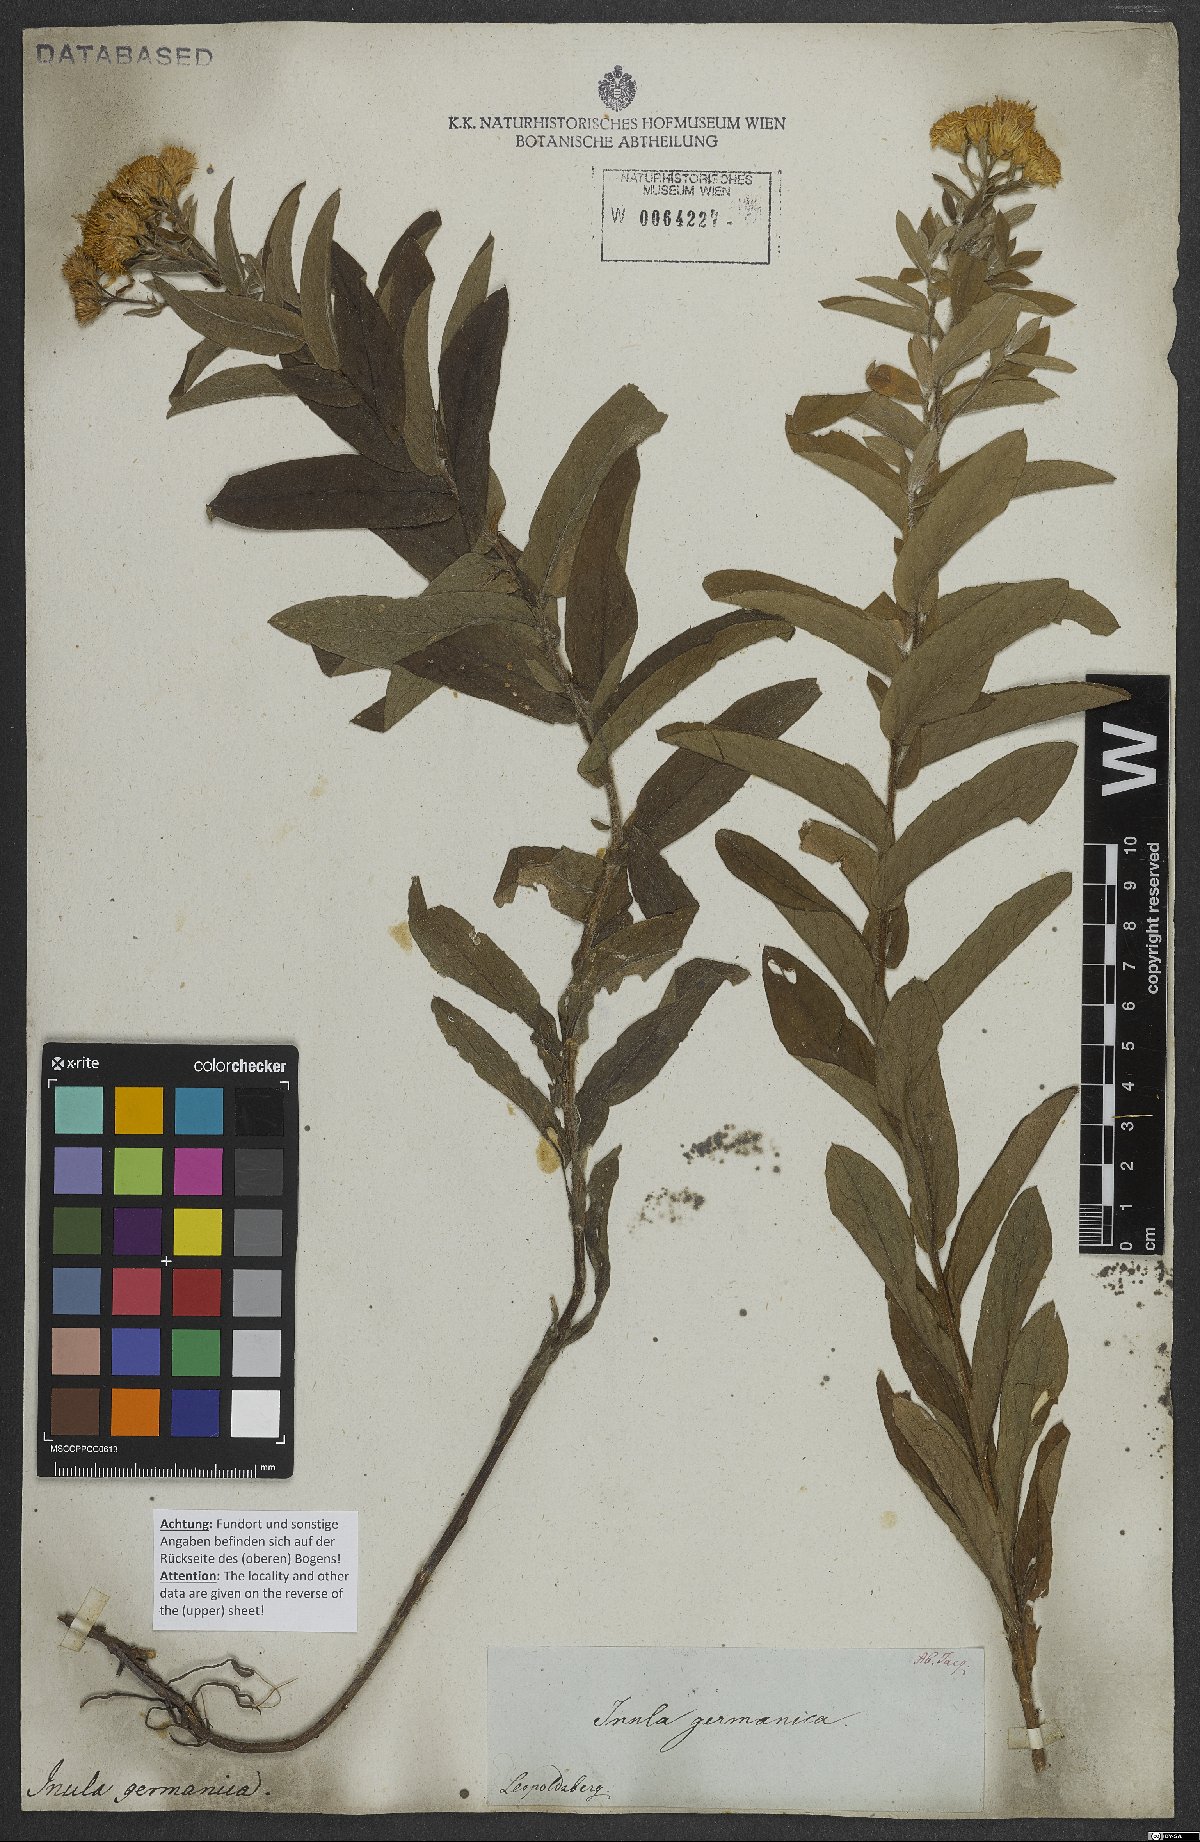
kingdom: Plantae
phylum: Tracheophyta
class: Magnoliopsida
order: Asterales
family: Asteraceae
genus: Pentanema
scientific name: Pentanema germanicum
